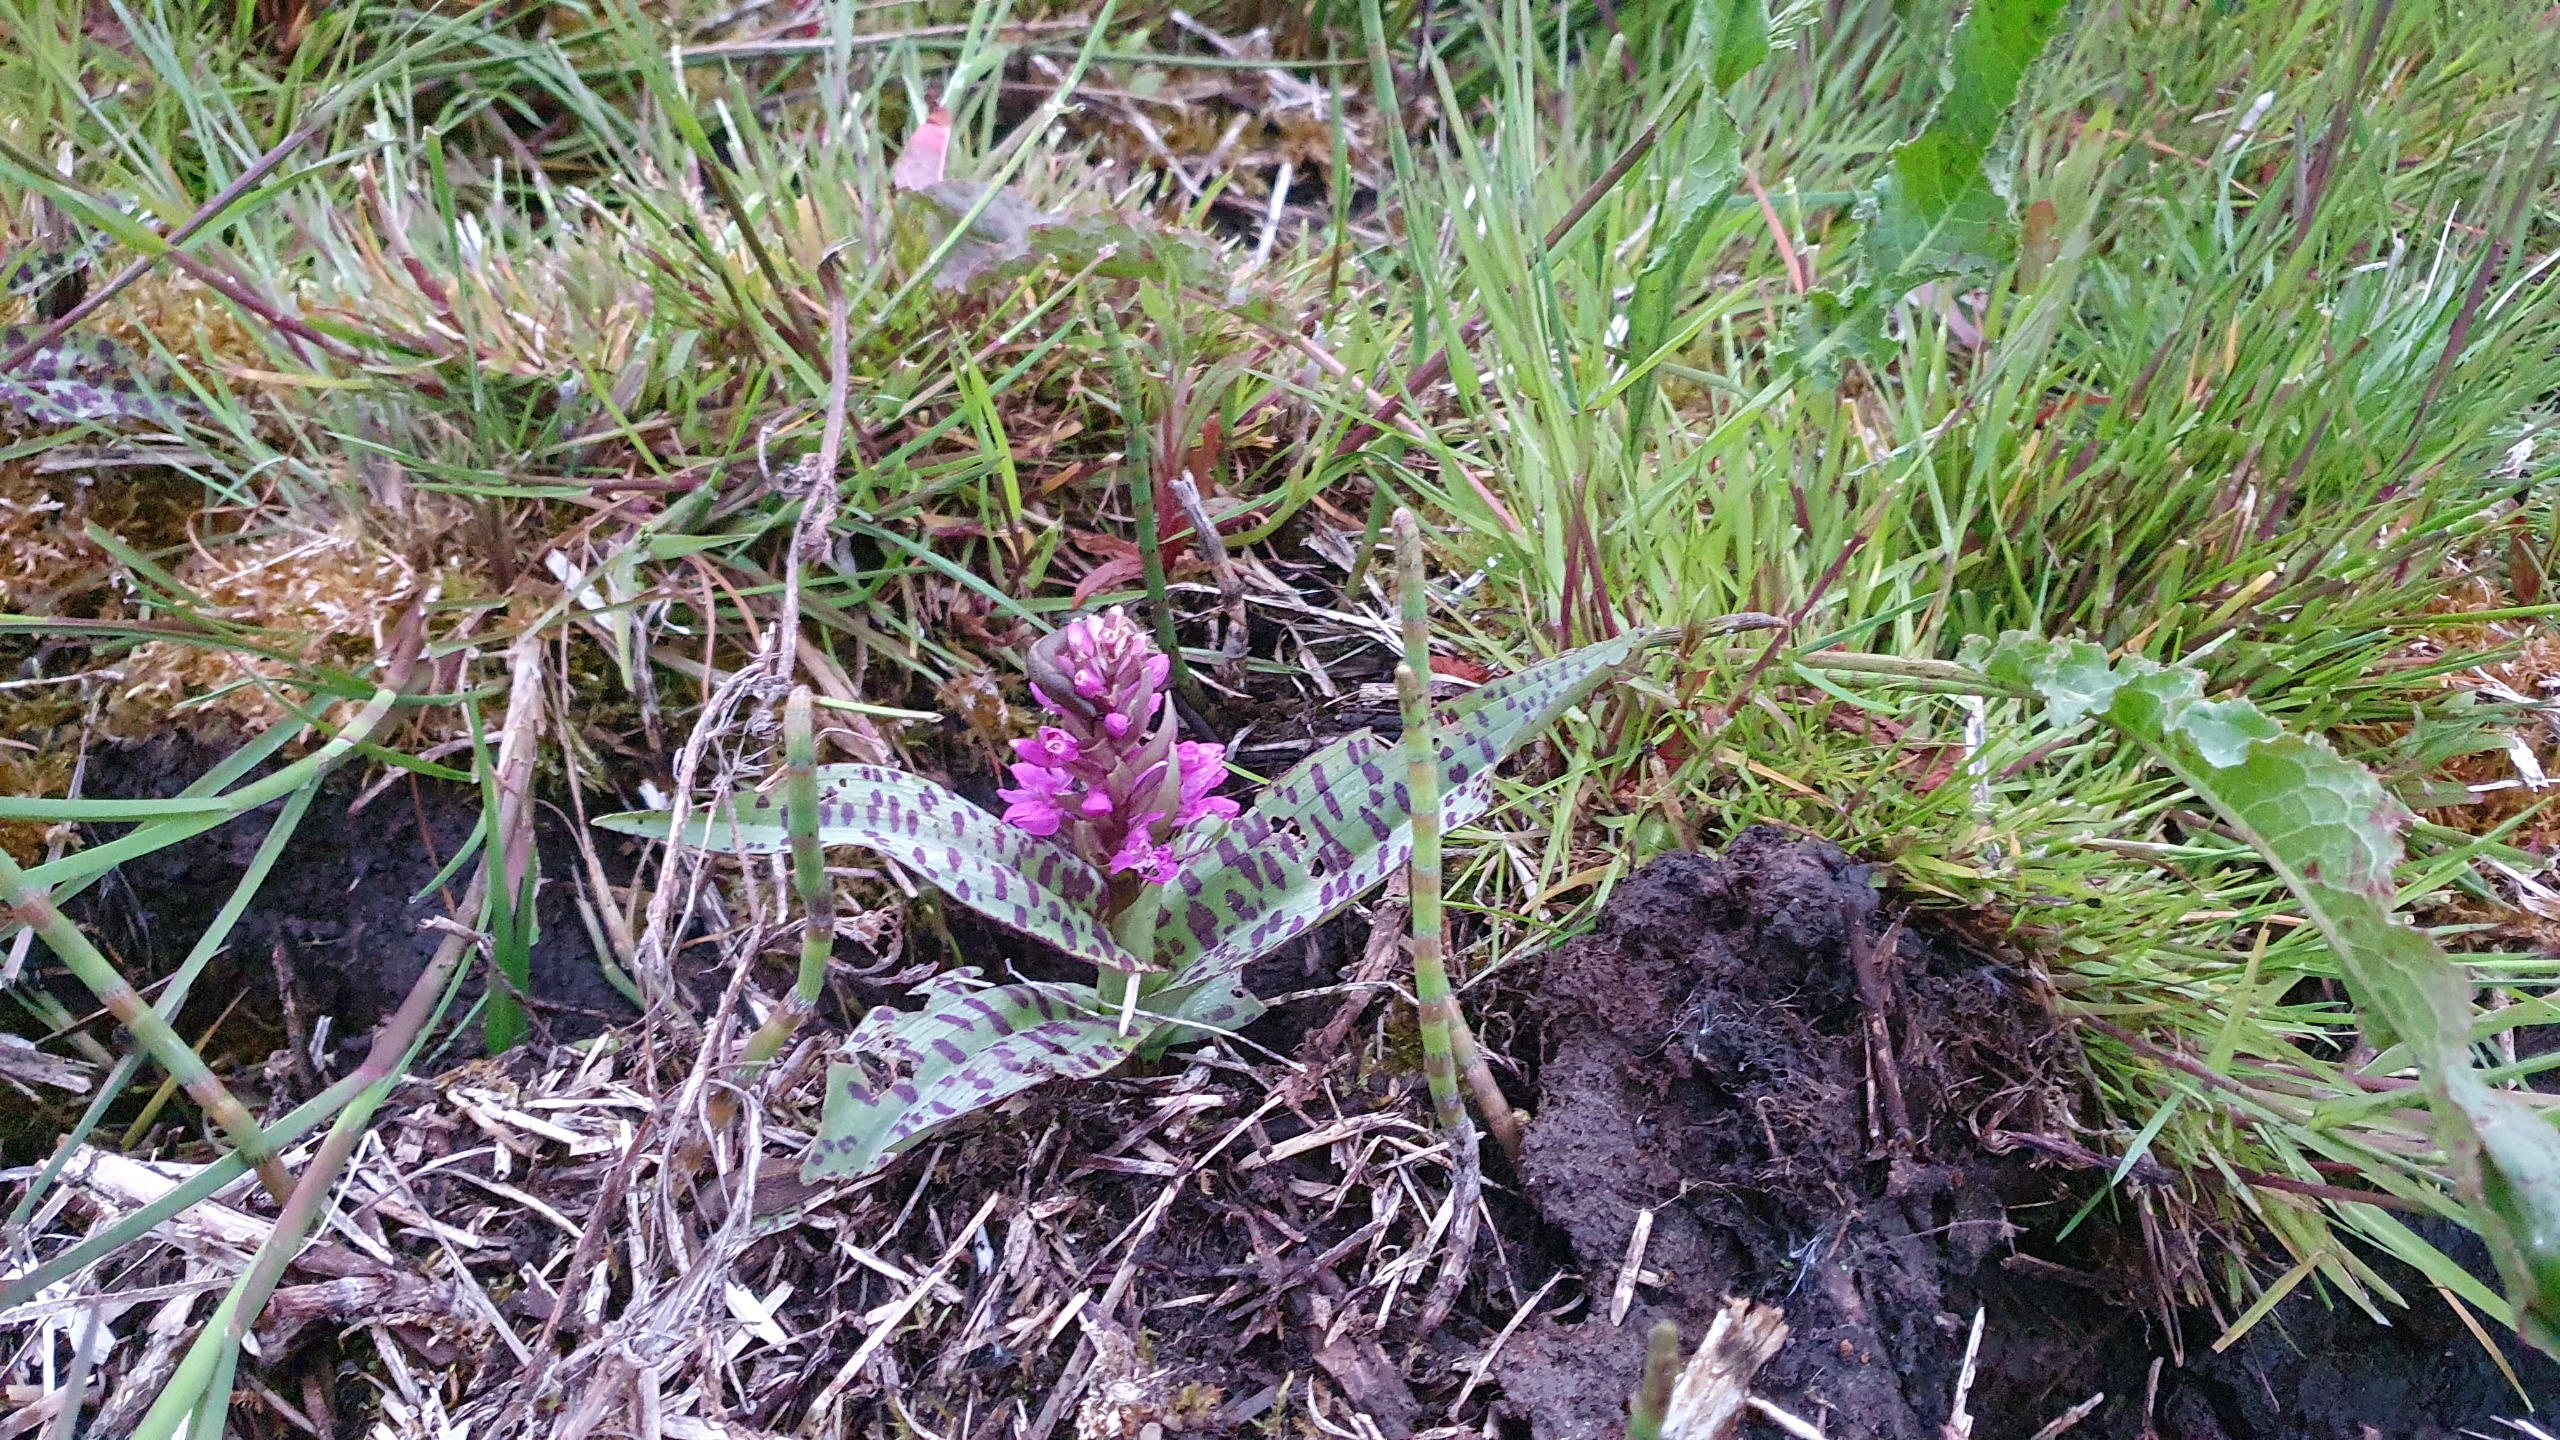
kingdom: Plantae
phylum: Tracheophyta
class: Liliopsida
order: Asparagales
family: Orchidaceae
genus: Dactylorhiza
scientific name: Dactylorhiza majalis
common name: Maj-gøgeurt
